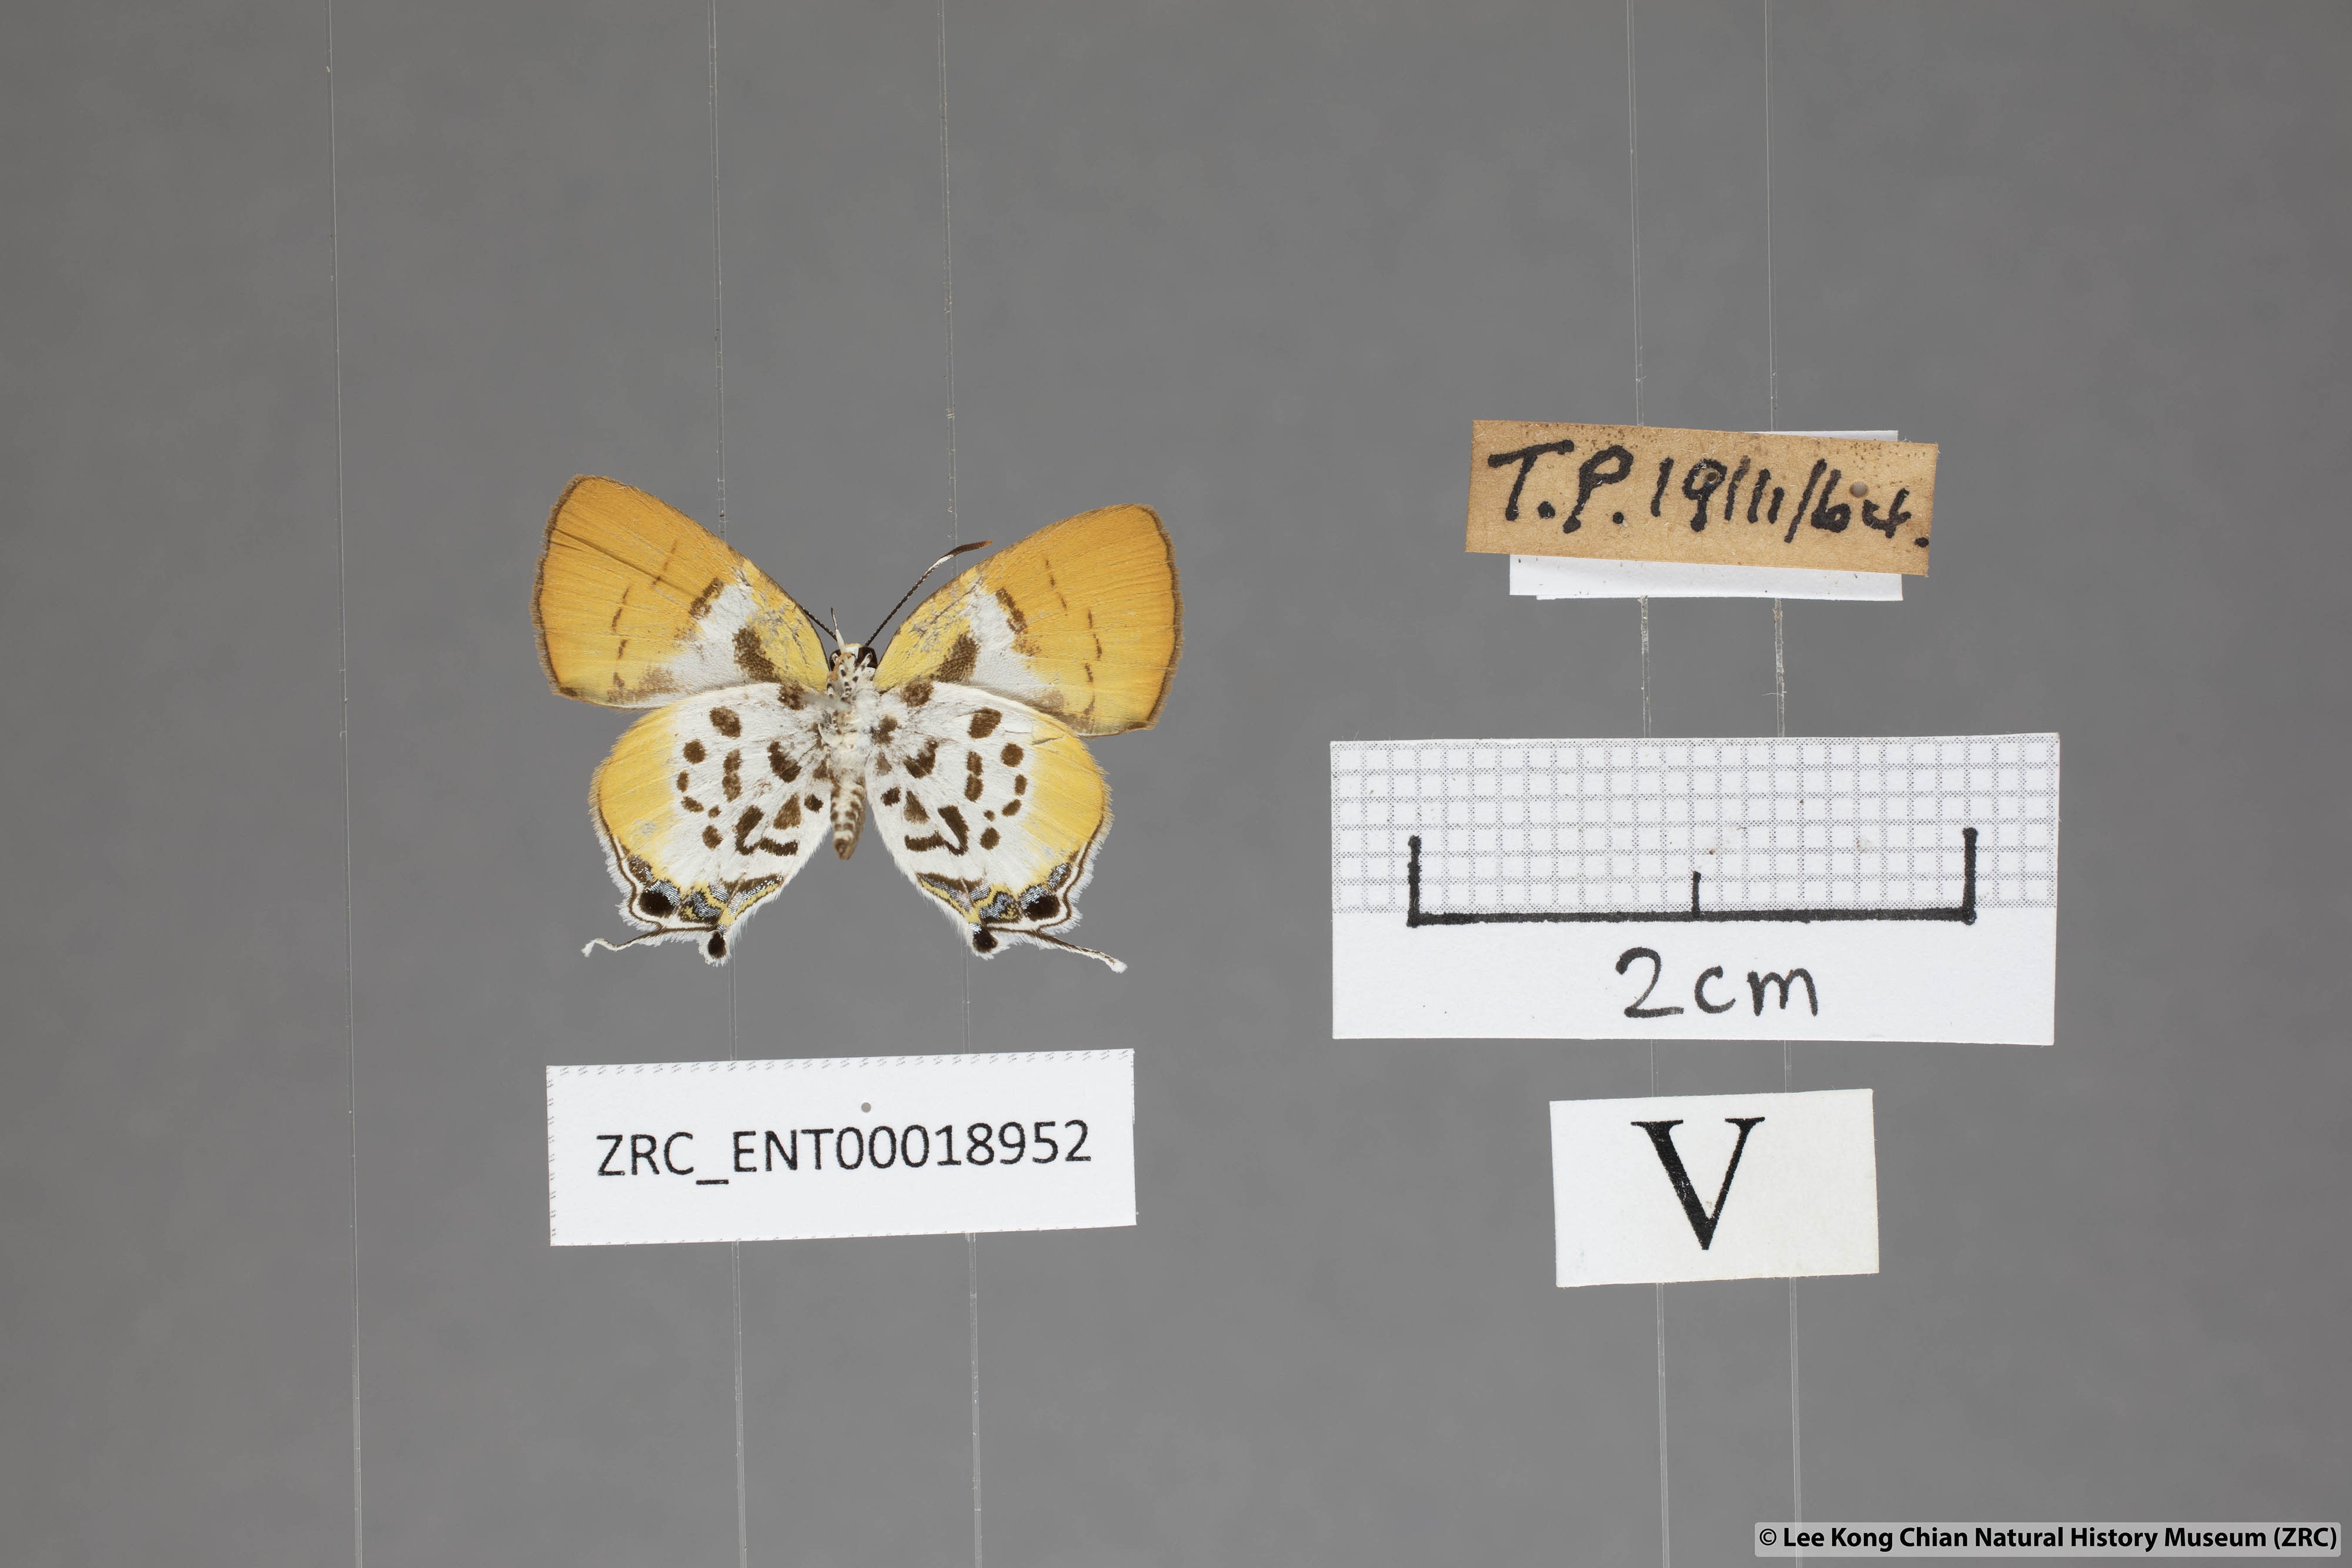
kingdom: Animalia
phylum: Arthropoda
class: Insecta
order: Lepidoptera
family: Lycaenidae
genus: Araotes
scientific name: Araotes lapithis
